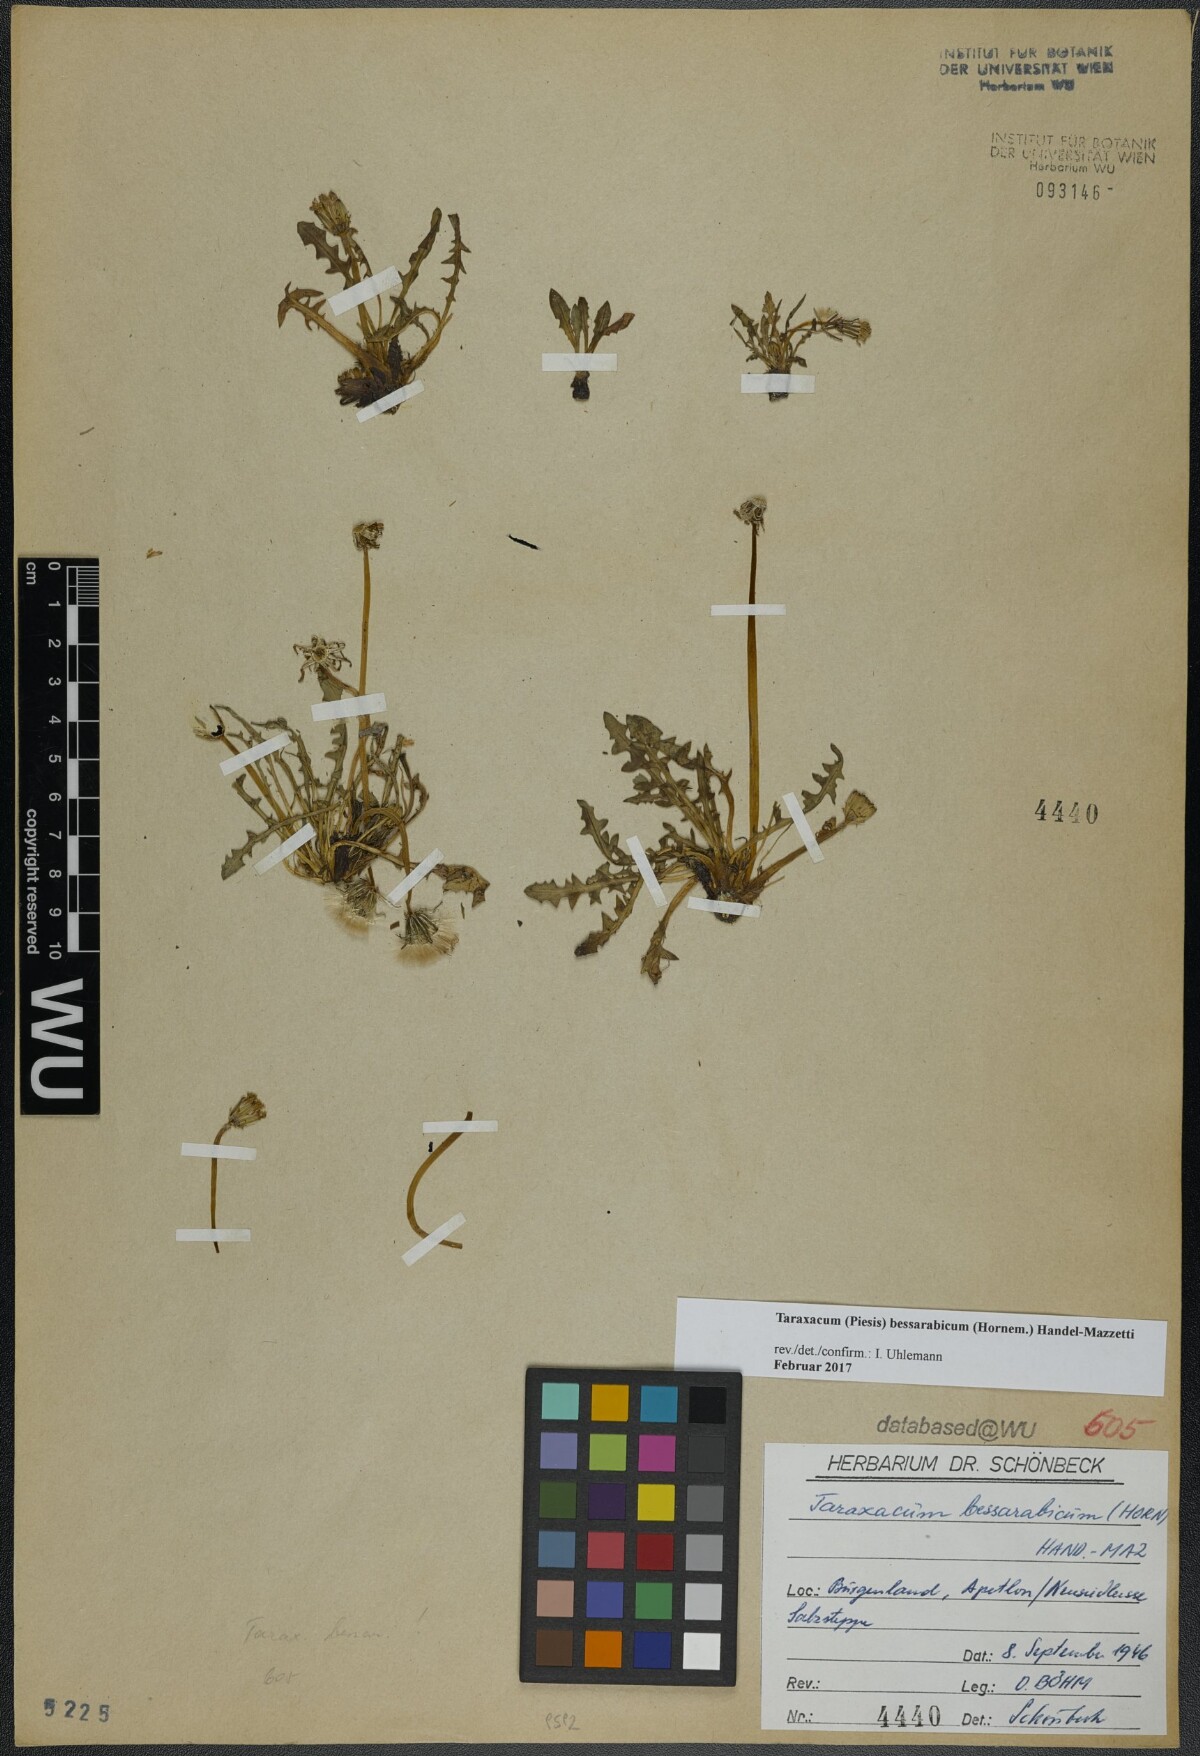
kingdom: Plantae
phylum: Tracheophyta
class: Magnoliopsida
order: Asterales
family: Asteraceae
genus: Taraxacum
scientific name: Taraxacum bessarabicum
